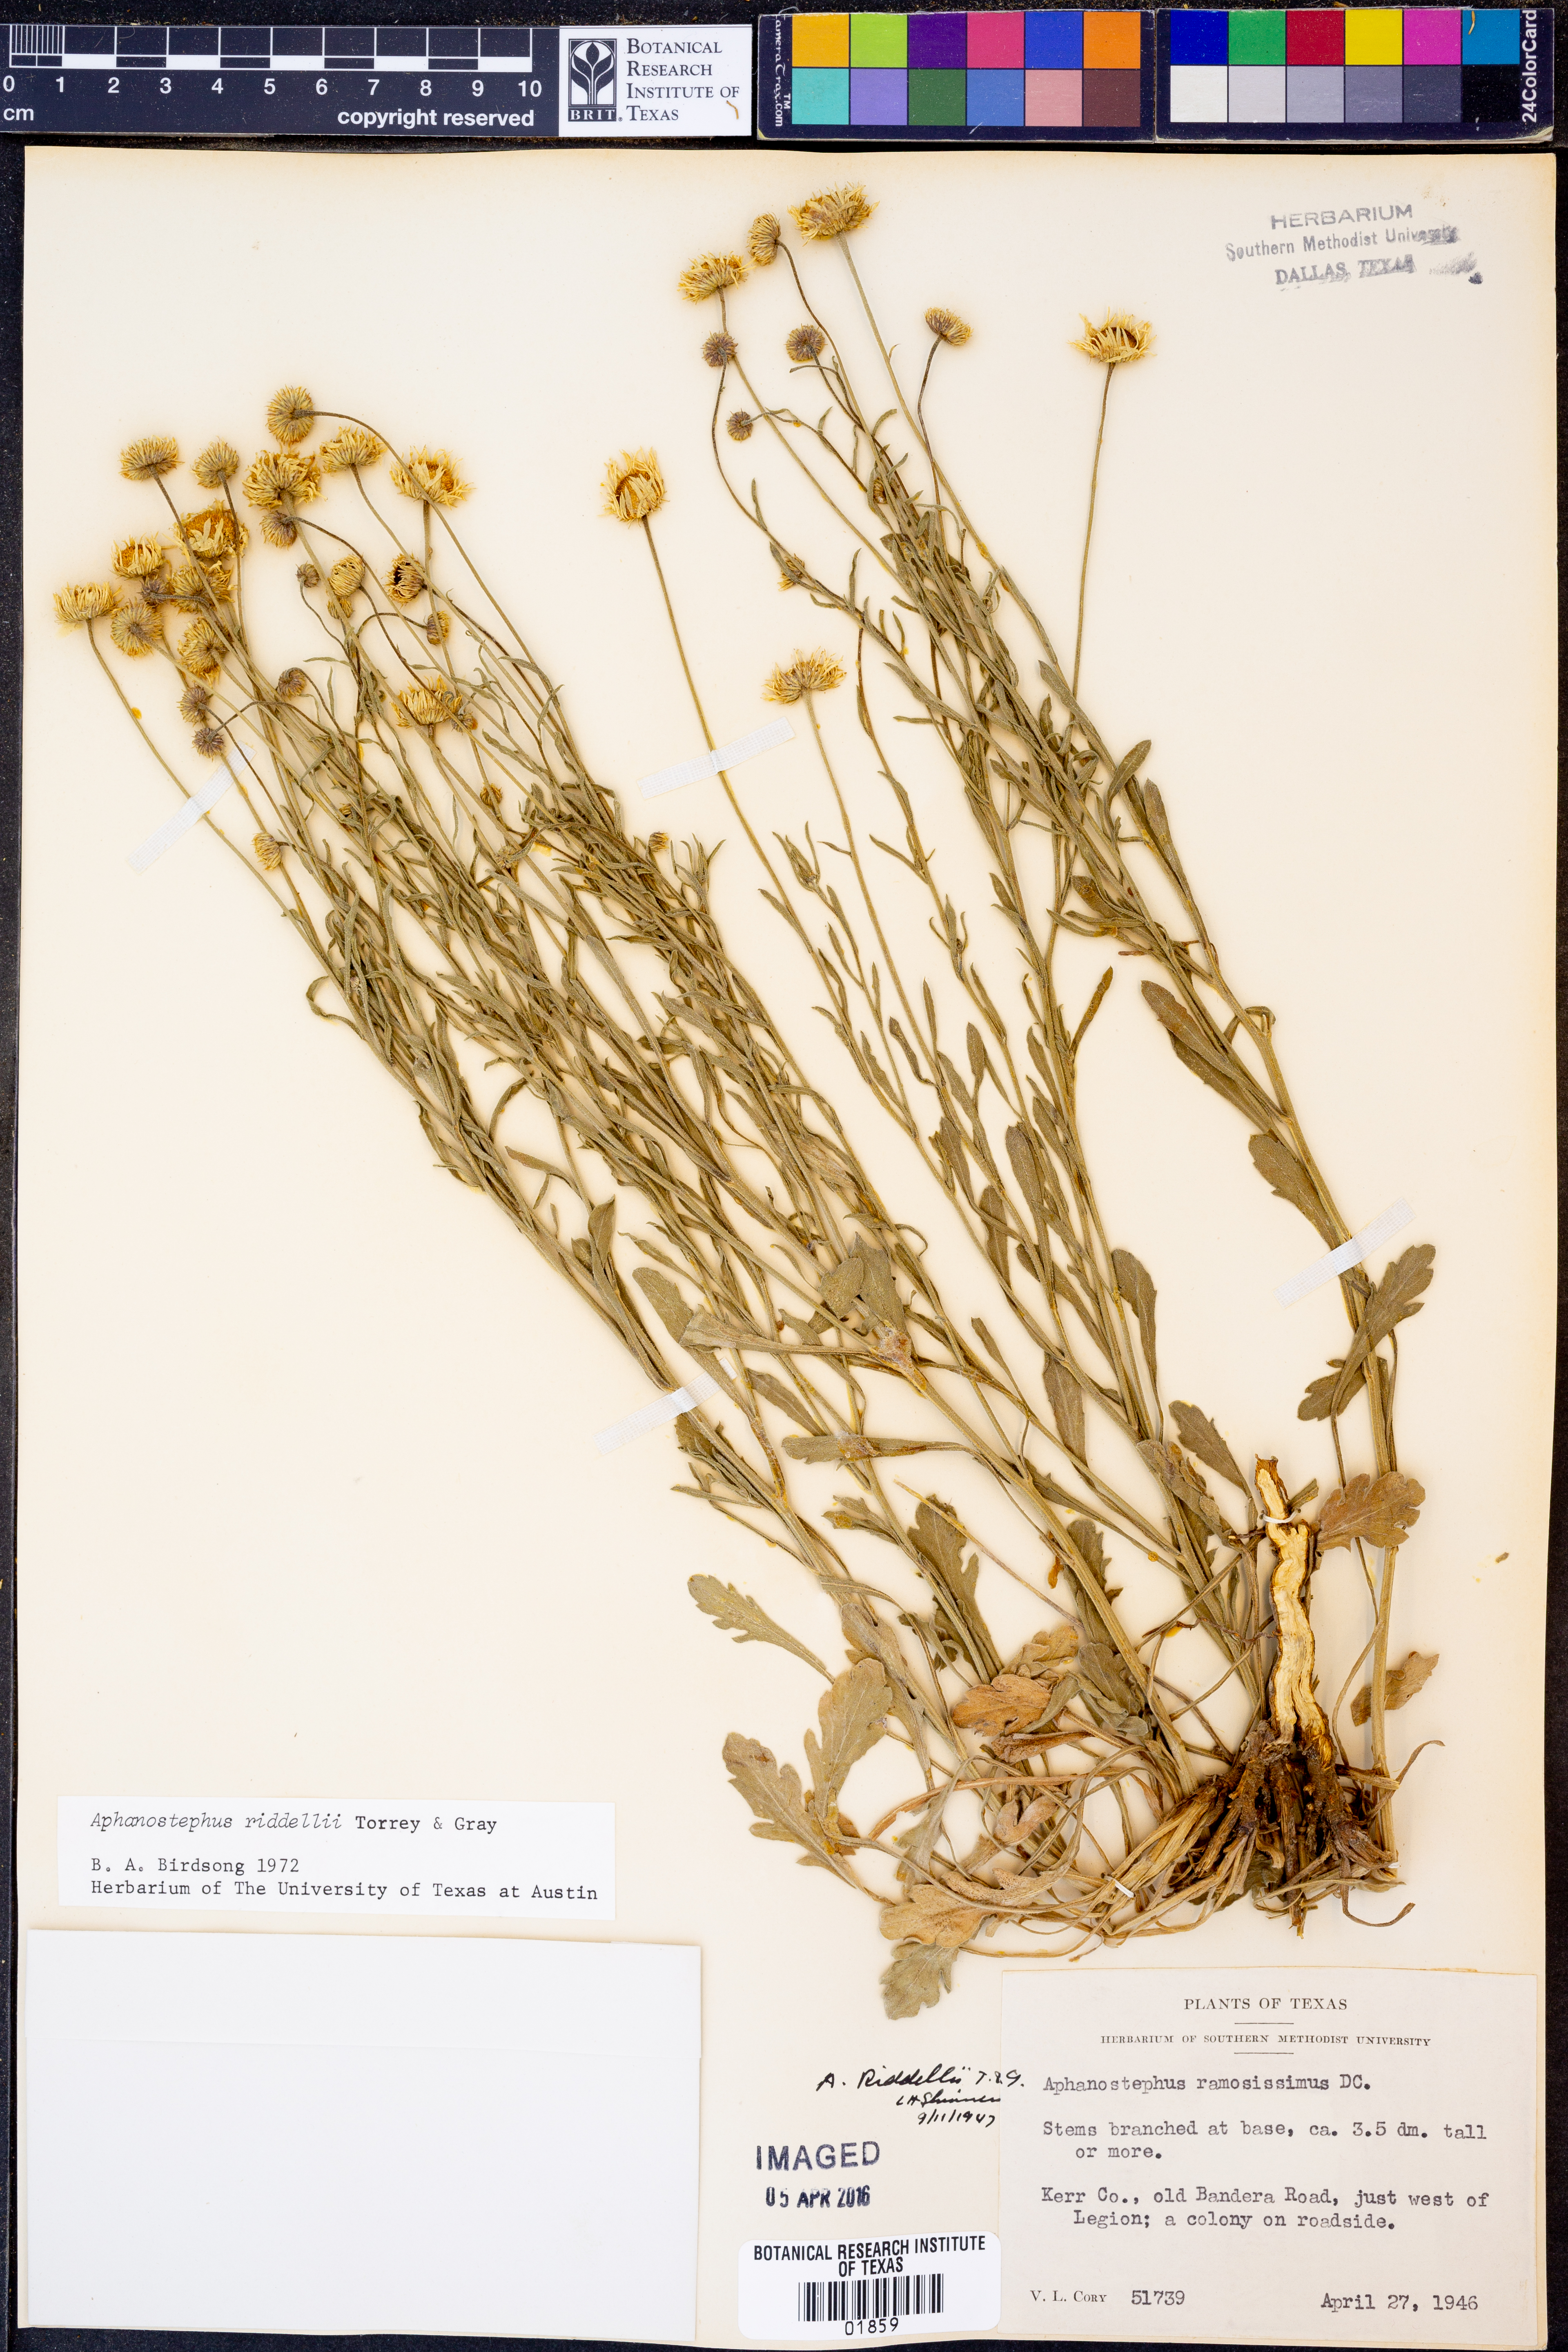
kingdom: Plantae
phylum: Tracheophyta
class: Magnoliopsida
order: Asterales
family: Asteraceae
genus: Aphanostephus
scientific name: Aphanostephus riddellii
